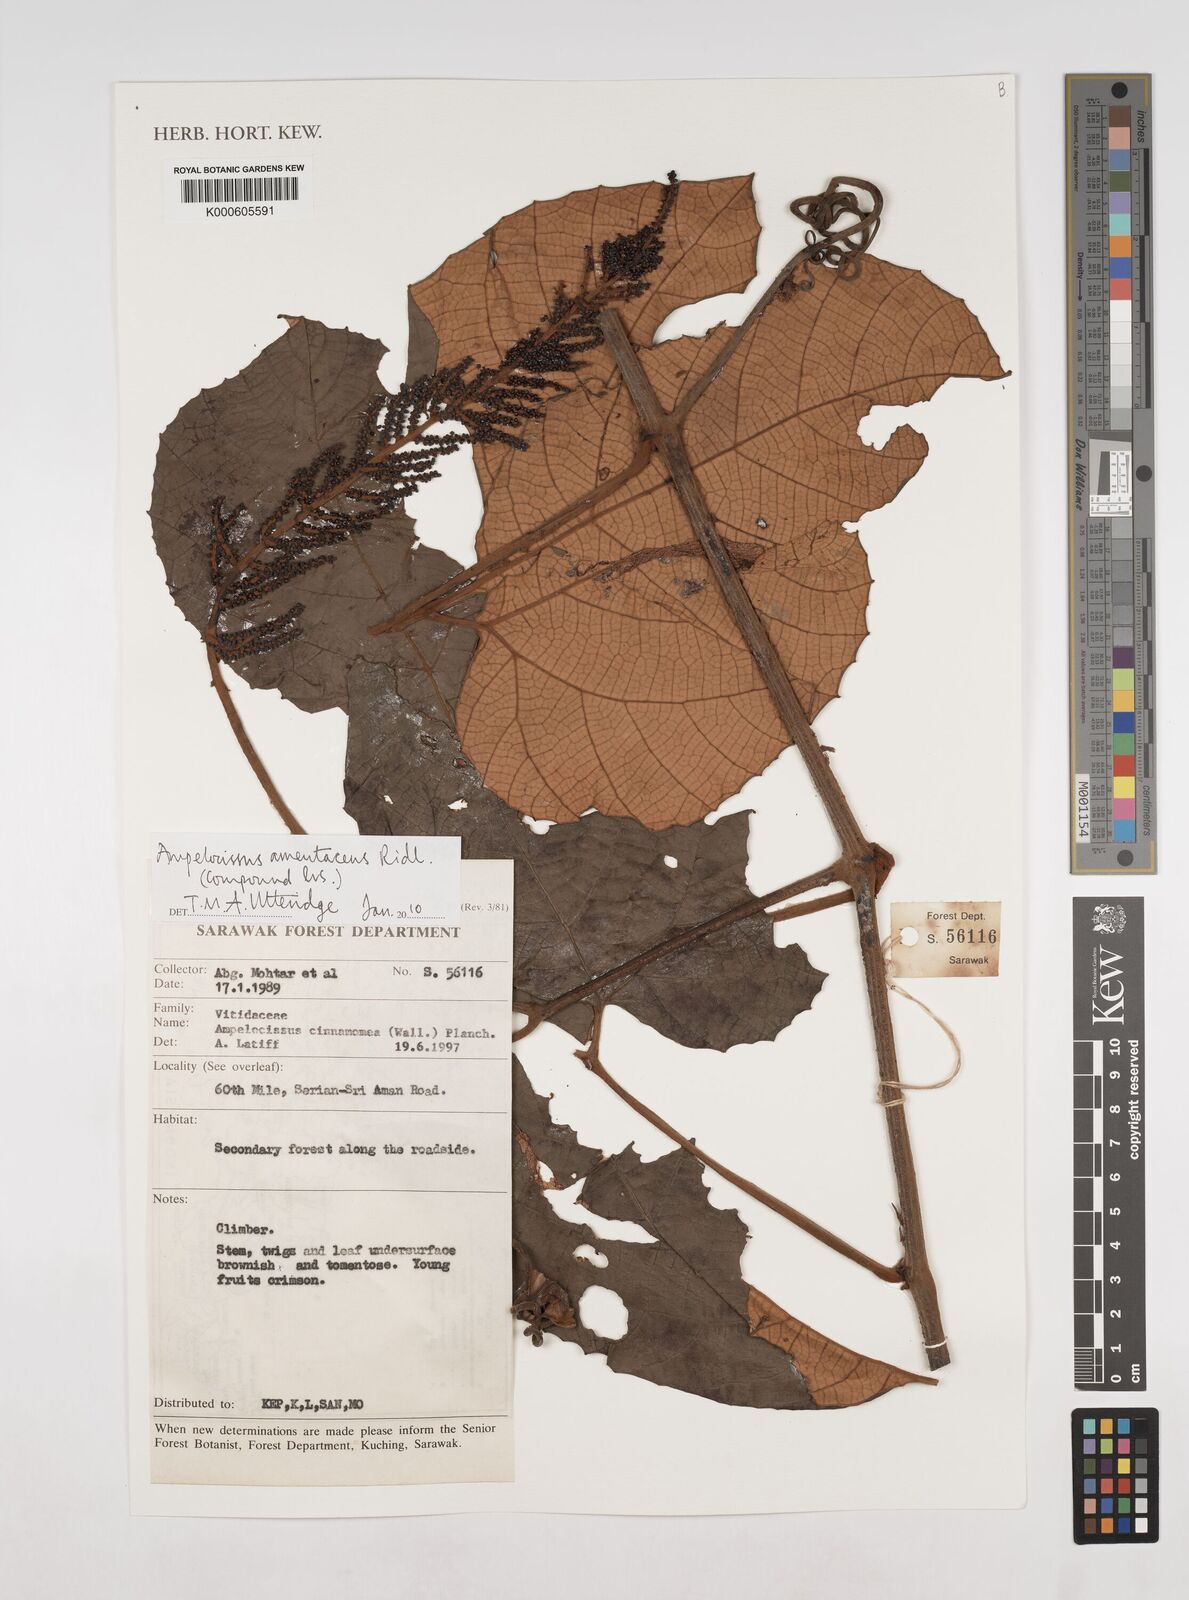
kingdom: Plantae
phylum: Tracheophyta
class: Magnoliopsida
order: Vitales
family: Vitaceae
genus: Ampelocissus
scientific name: Ampelocissus amentacea
